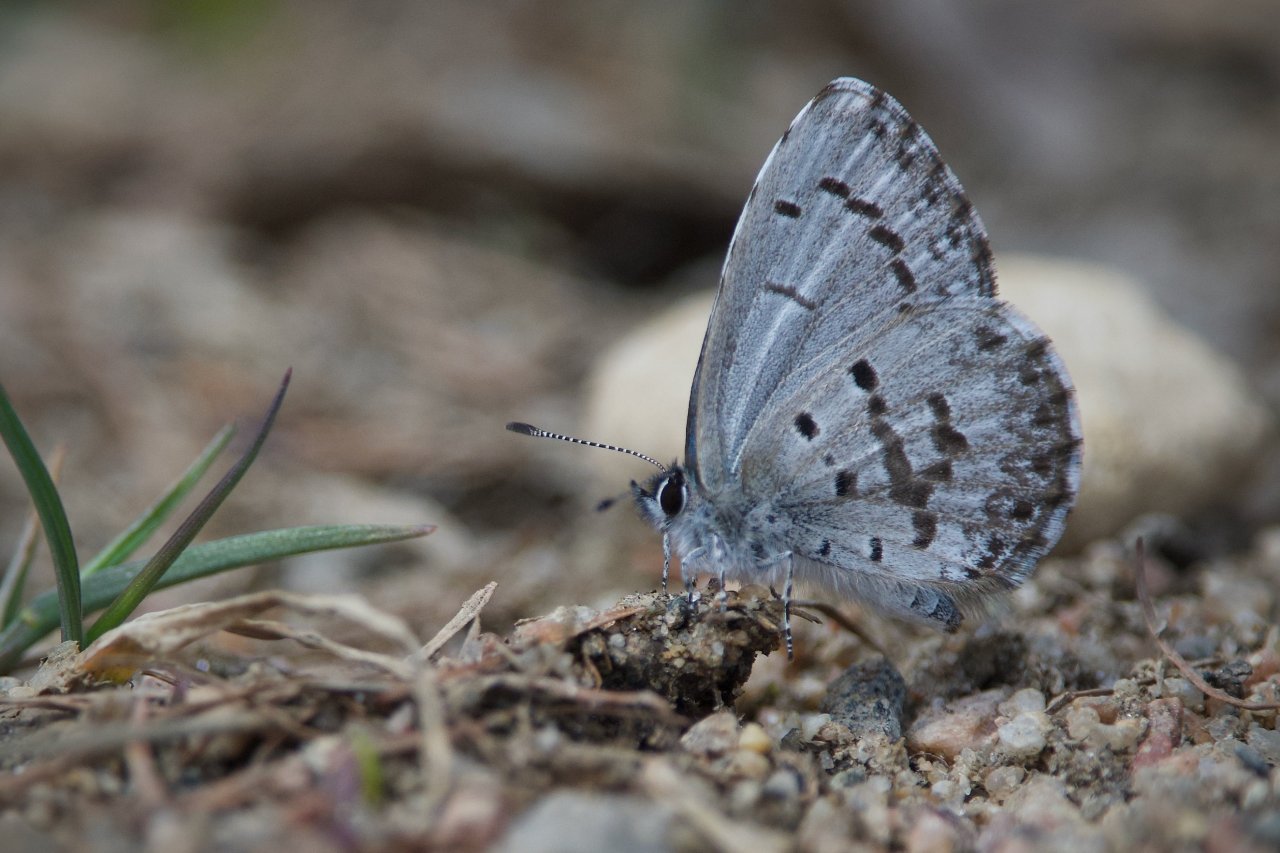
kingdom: Animalia
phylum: Arthropoda
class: Insecta
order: Lepidoptera
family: Lycaenidae
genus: Celastrina
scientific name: Celastrina lucia
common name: Northern Spring Azure
